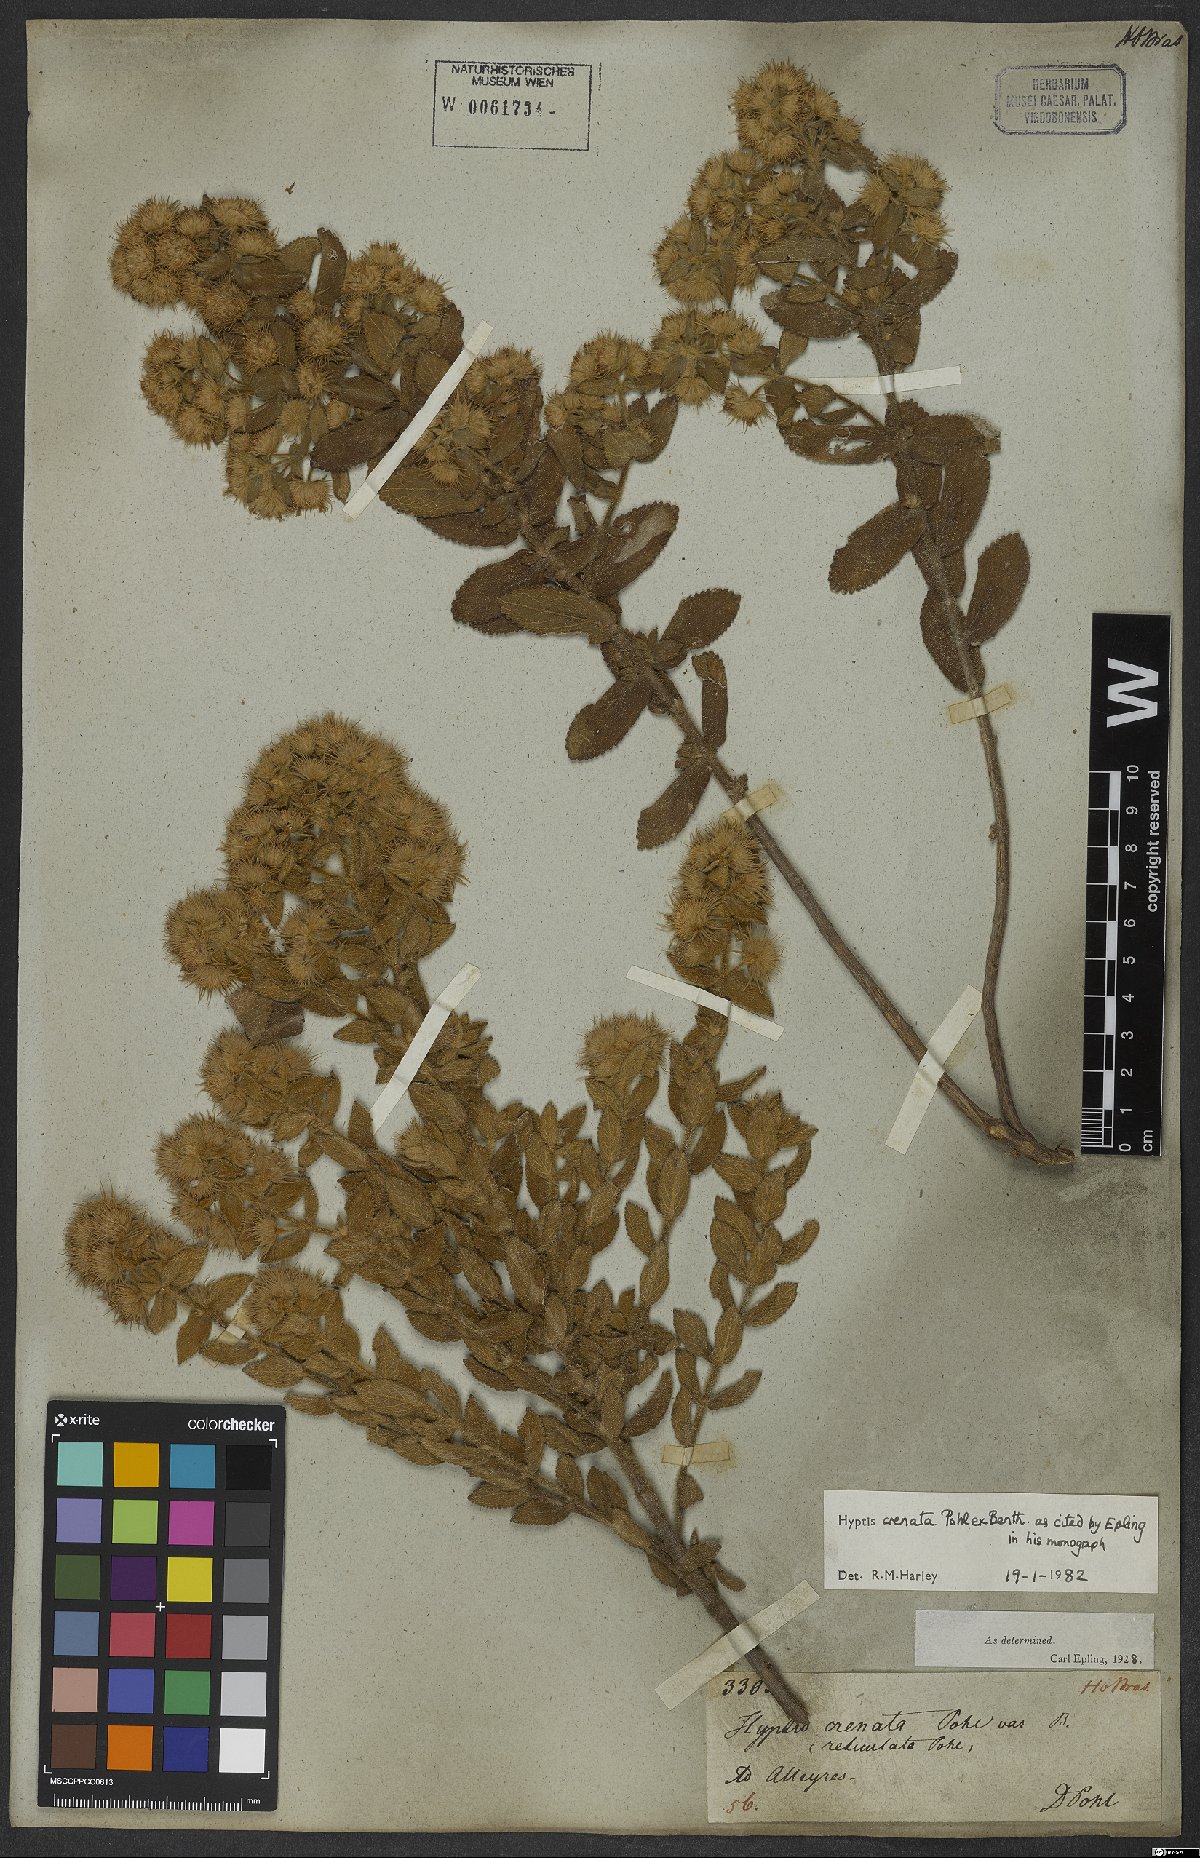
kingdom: Plantae
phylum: Tracheophyta
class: Magnoliopsida
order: Lamiales
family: Lamiaceae
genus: Hyptis
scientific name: Hyptis crenata
